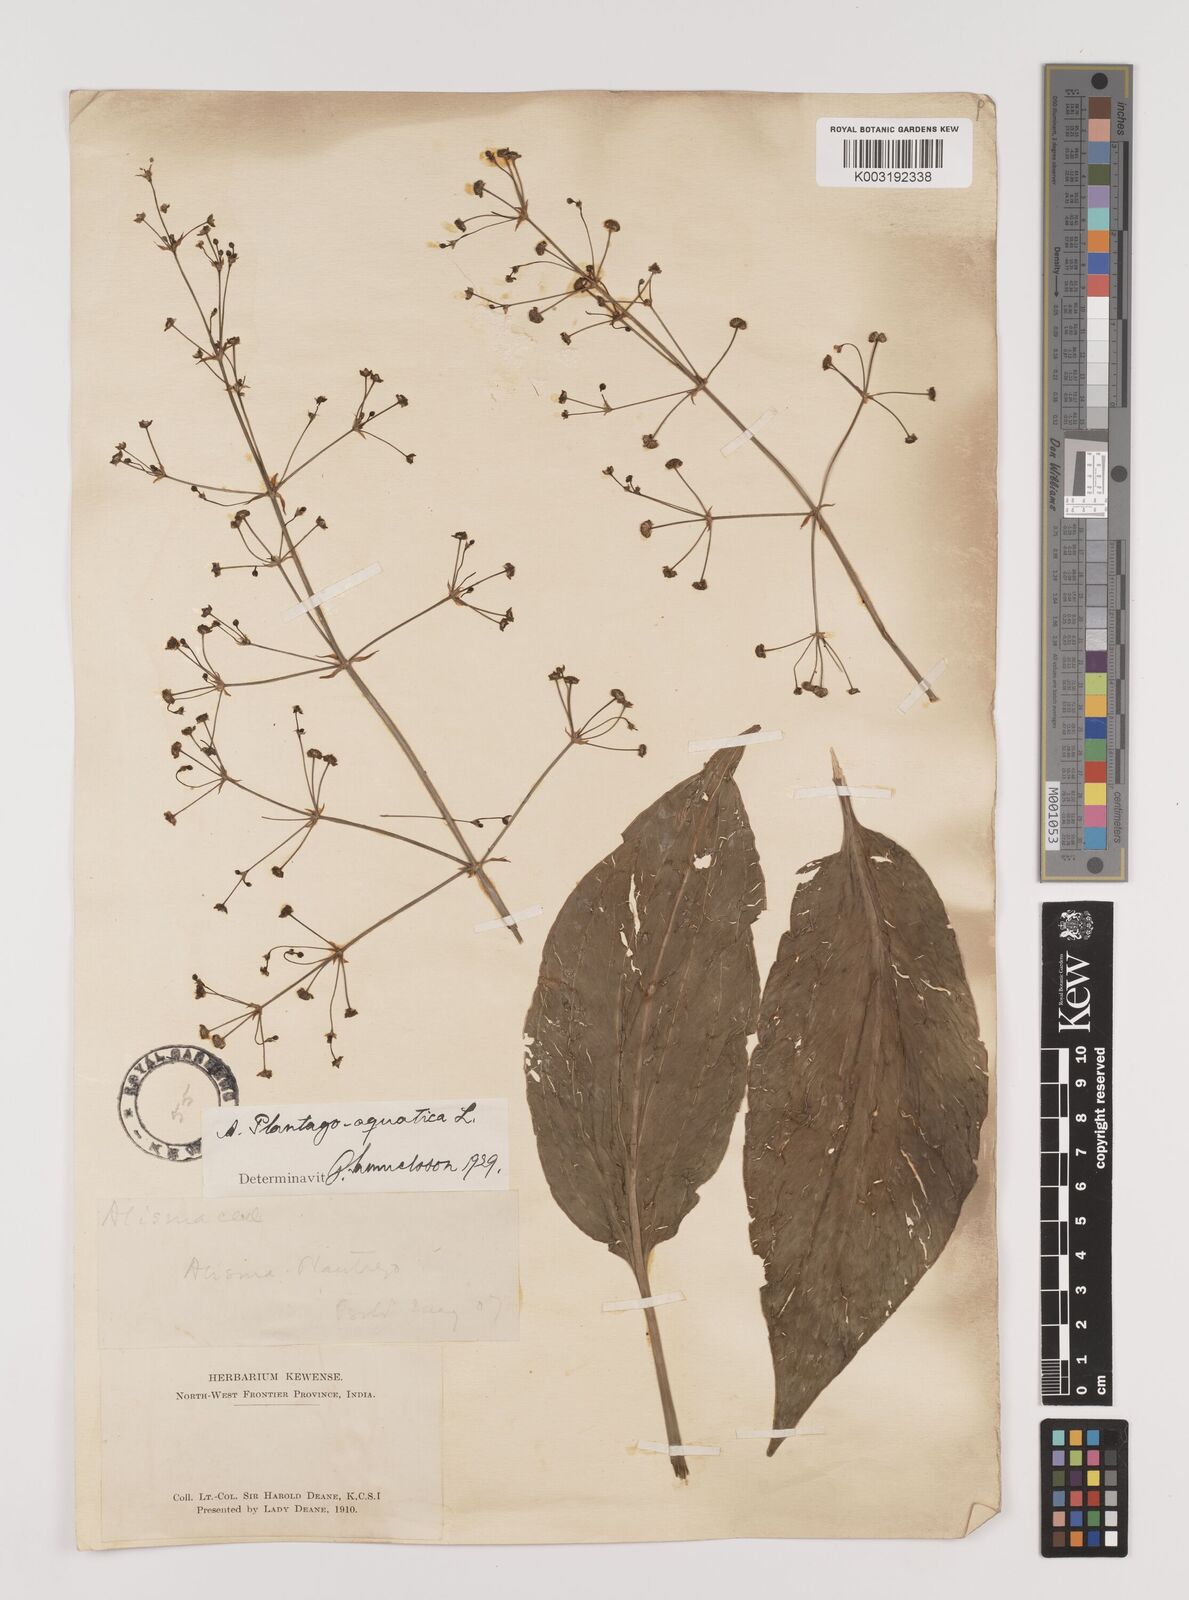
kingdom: Plantae
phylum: Tracheophyta
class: Liliopsida
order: Alismatales
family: Alismataceae
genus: Alisma
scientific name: Alisma plantago-aquatica
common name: Water-plantain
